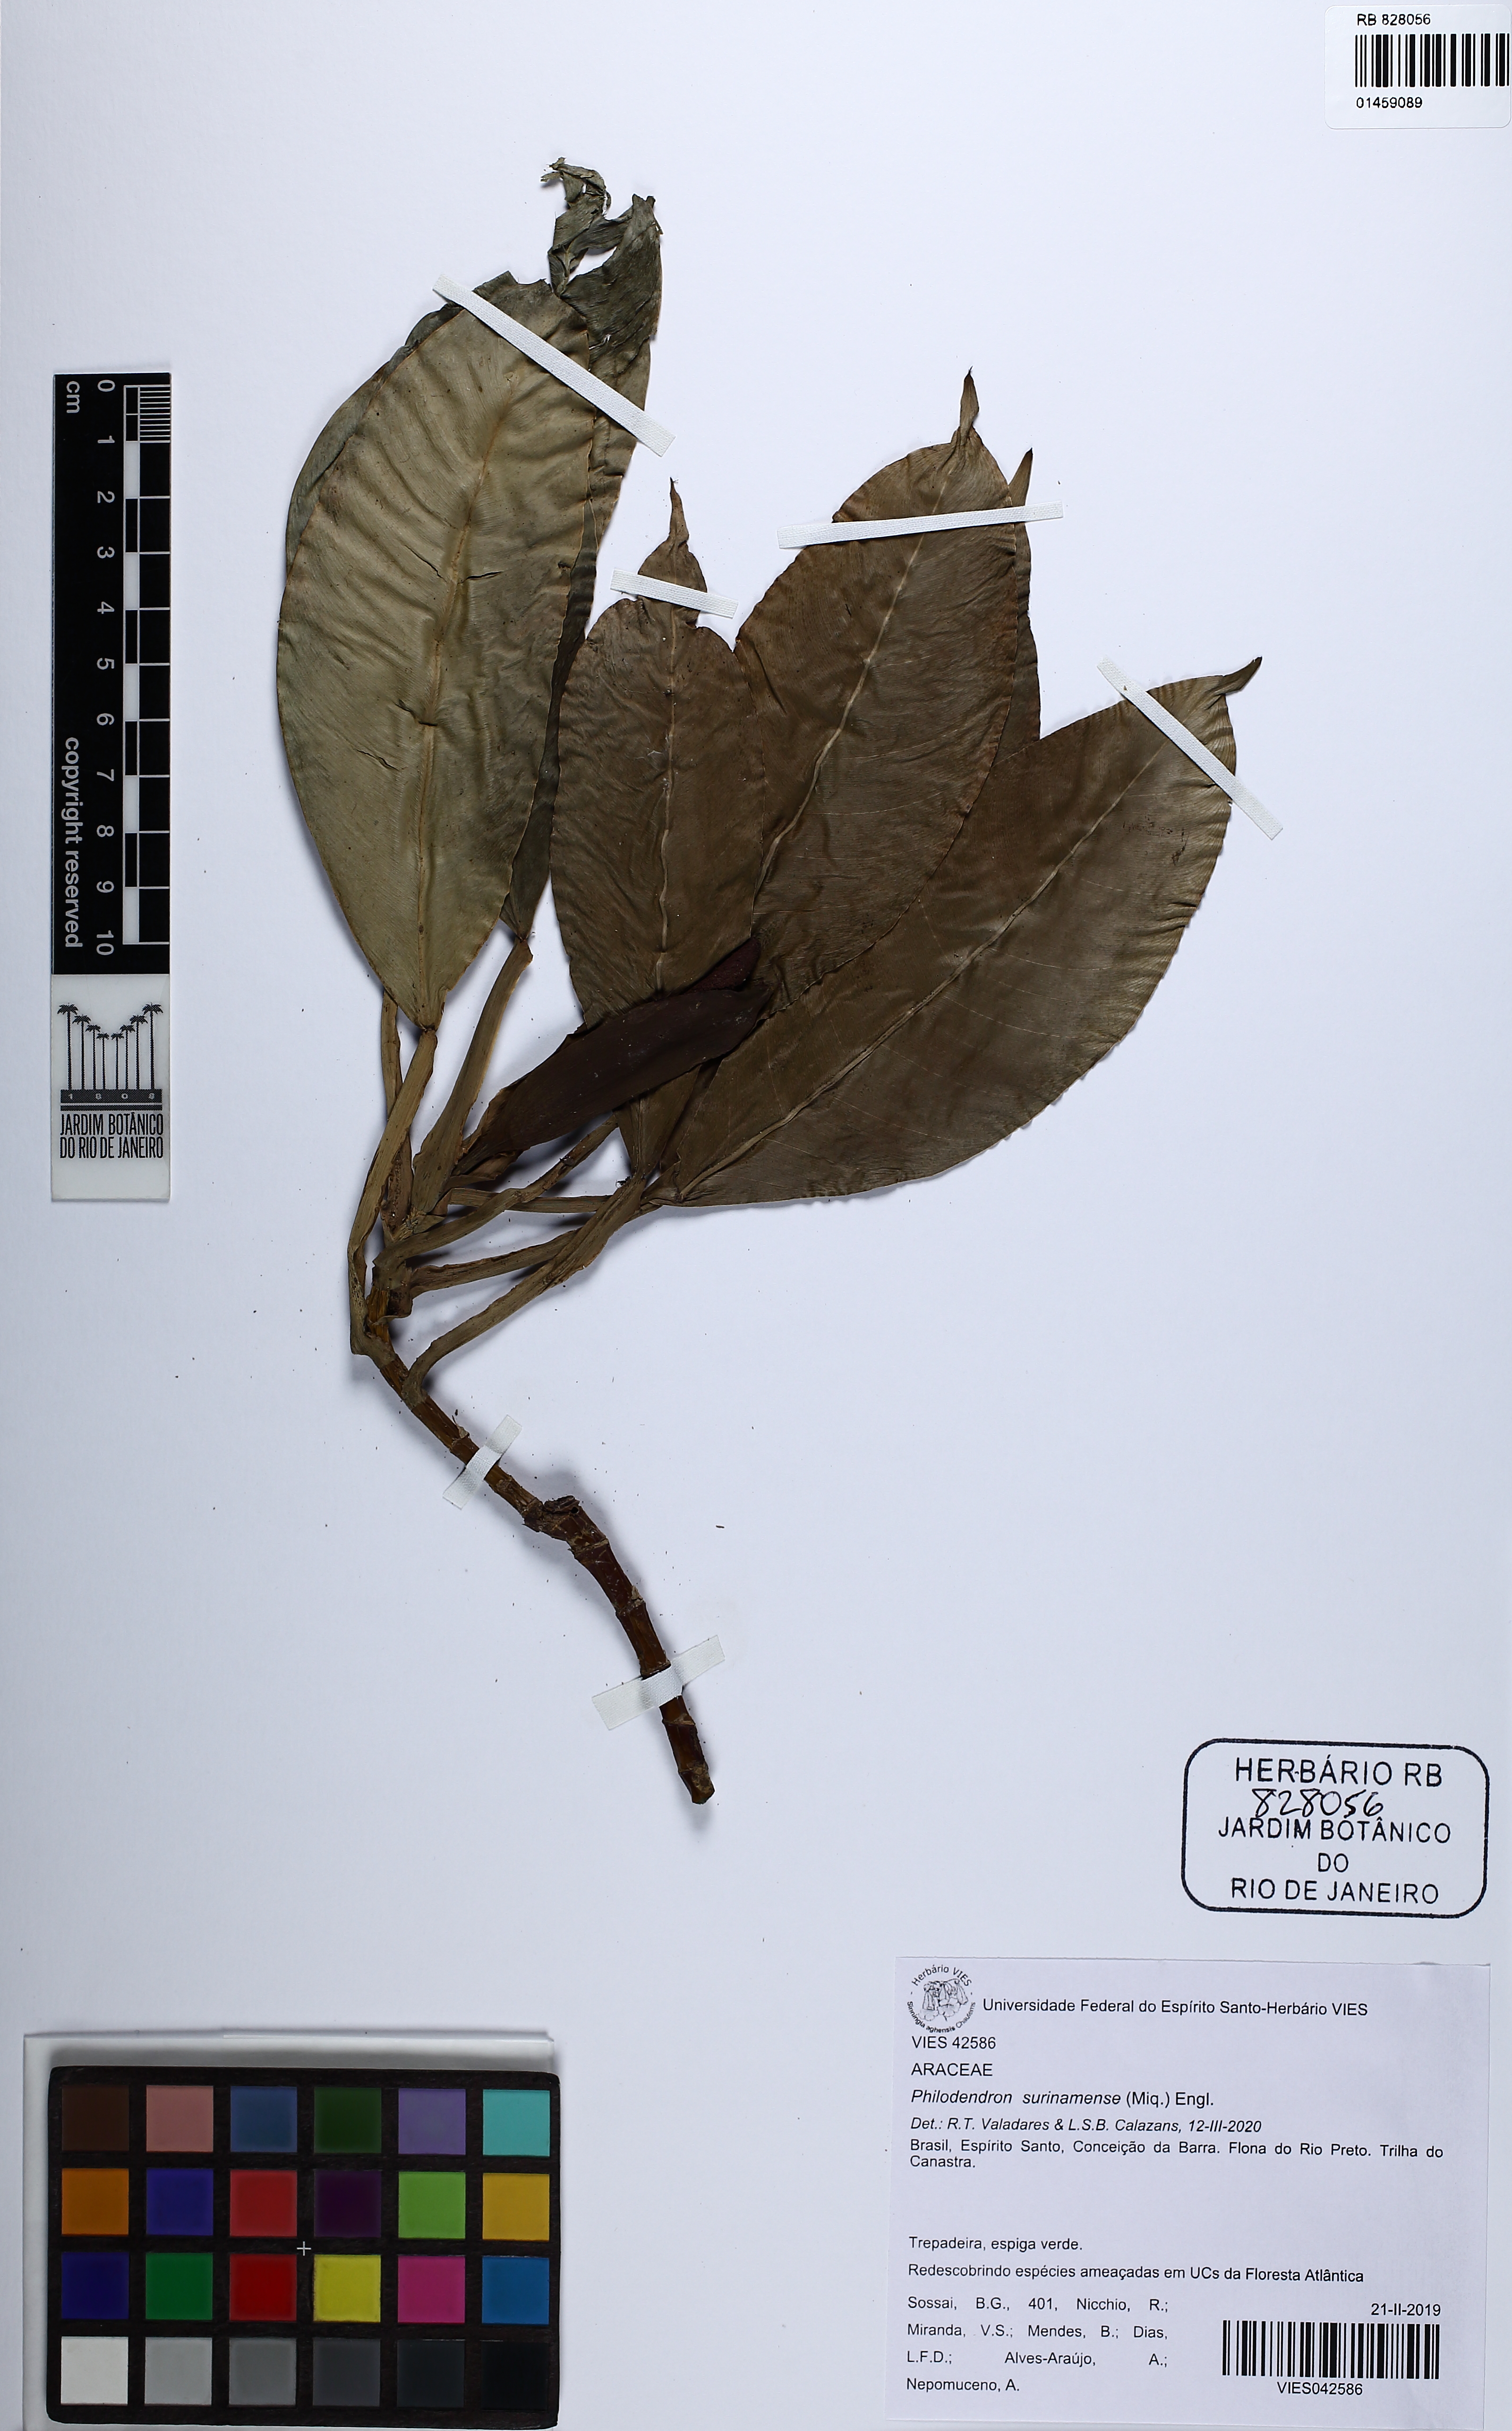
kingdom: Plantae
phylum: Tracheophyta
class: Liliopsida
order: Alismatales
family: Araceae
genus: Philodendron
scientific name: Philodendron surinamense
